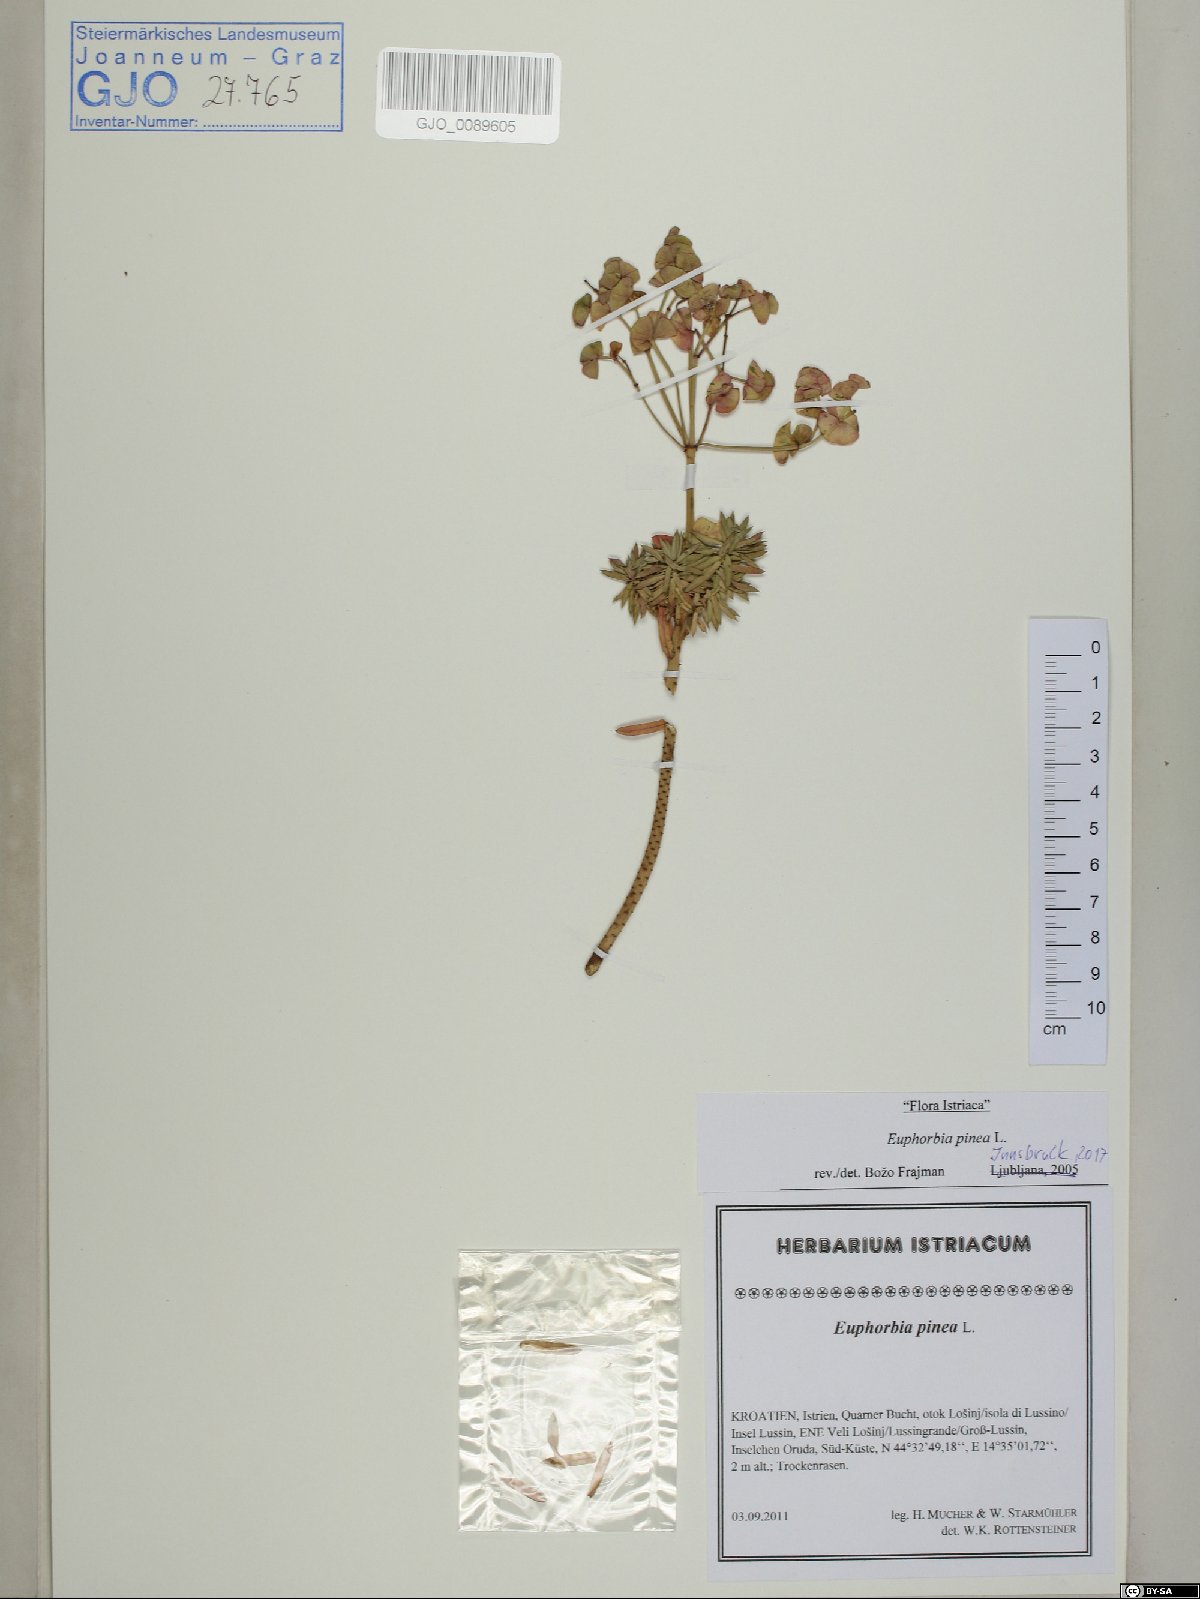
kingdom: Plantae
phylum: Tracheophyta
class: Magnoliopsida
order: Malpighiales
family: Euphorbiaceae
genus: Euphorbia
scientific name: Euphorbia segetalis
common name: Corn spurge
